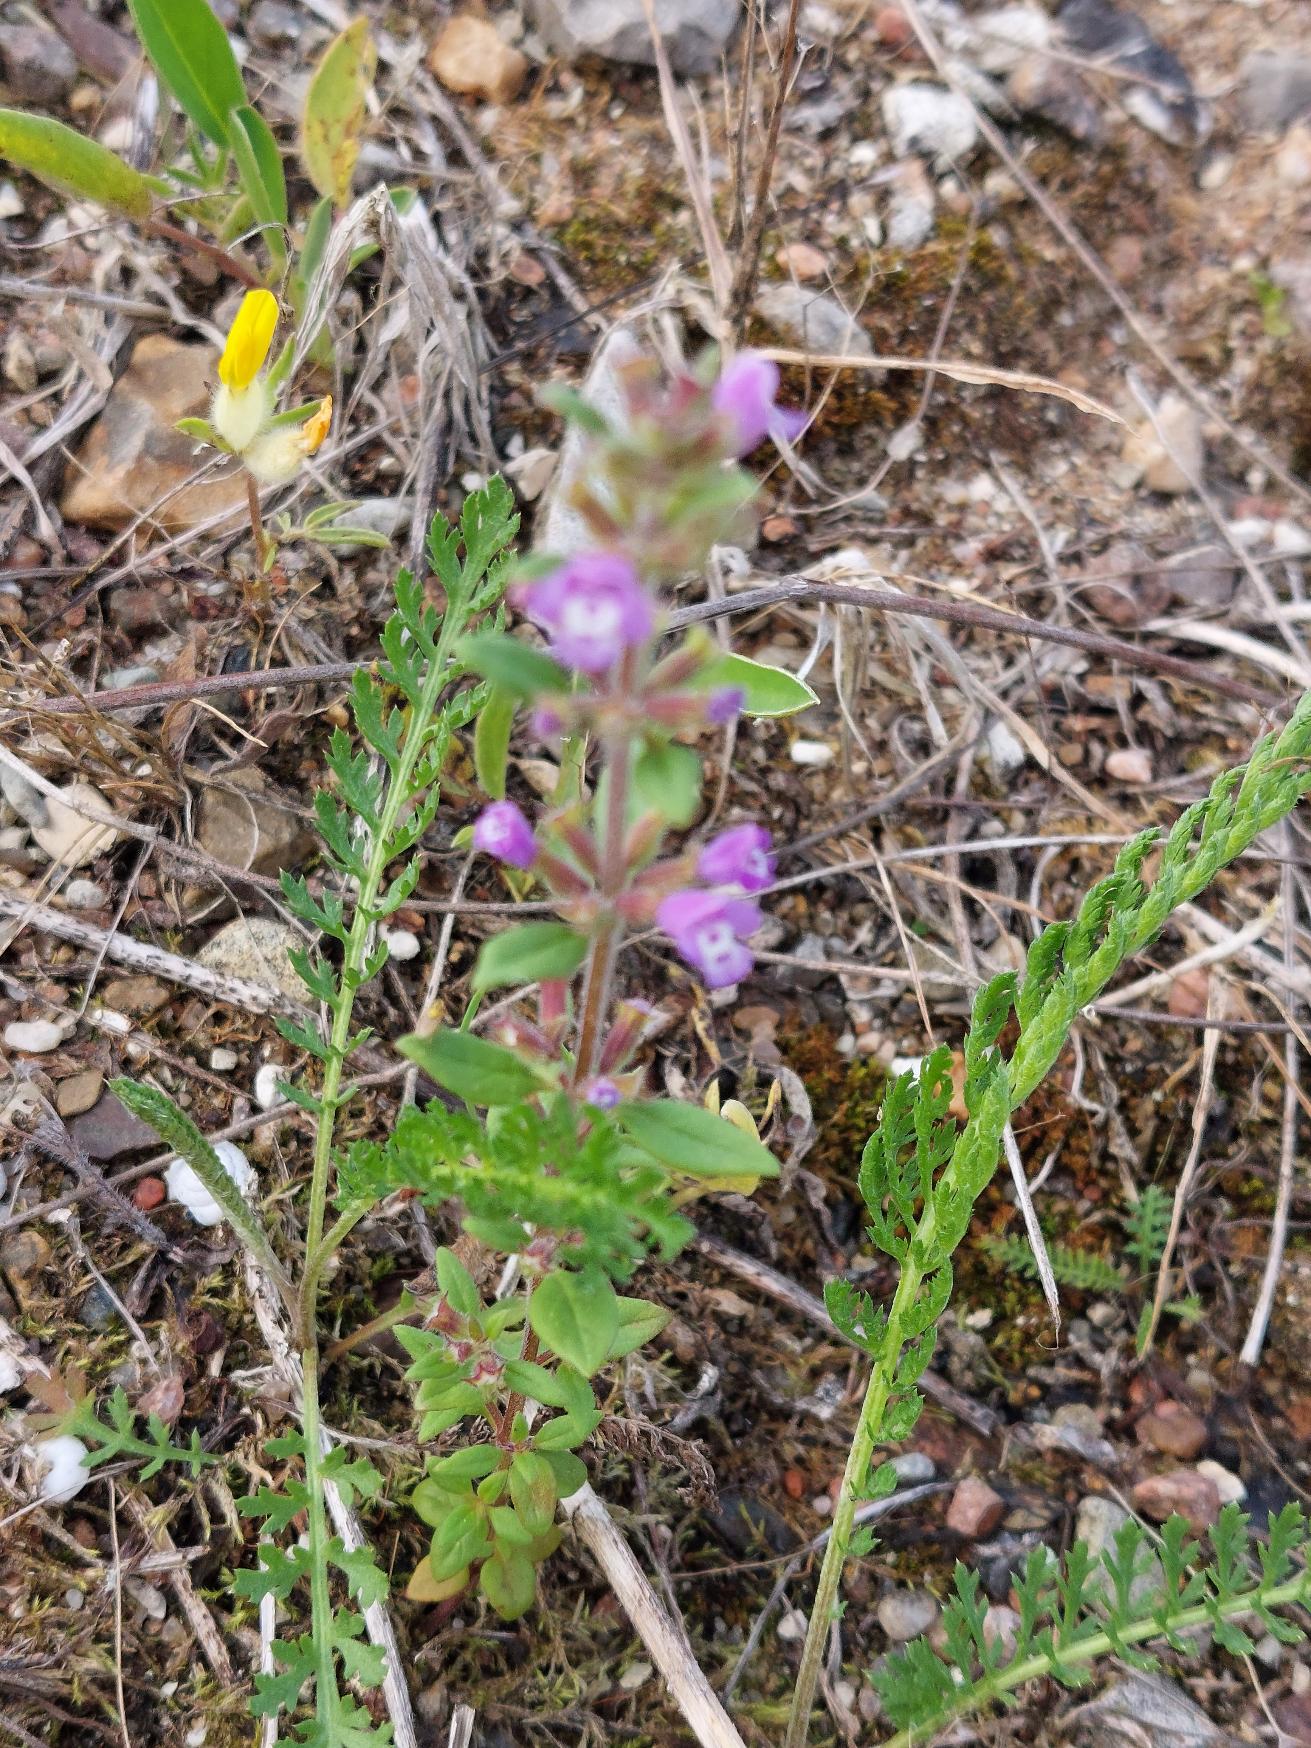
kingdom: Plantae
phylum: Tracheophyta
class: Magnoliopsida
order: Lamiales
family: Lamiaceae
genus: Clinopodium
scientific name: Clinopodium acinos
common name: Voldtimian
